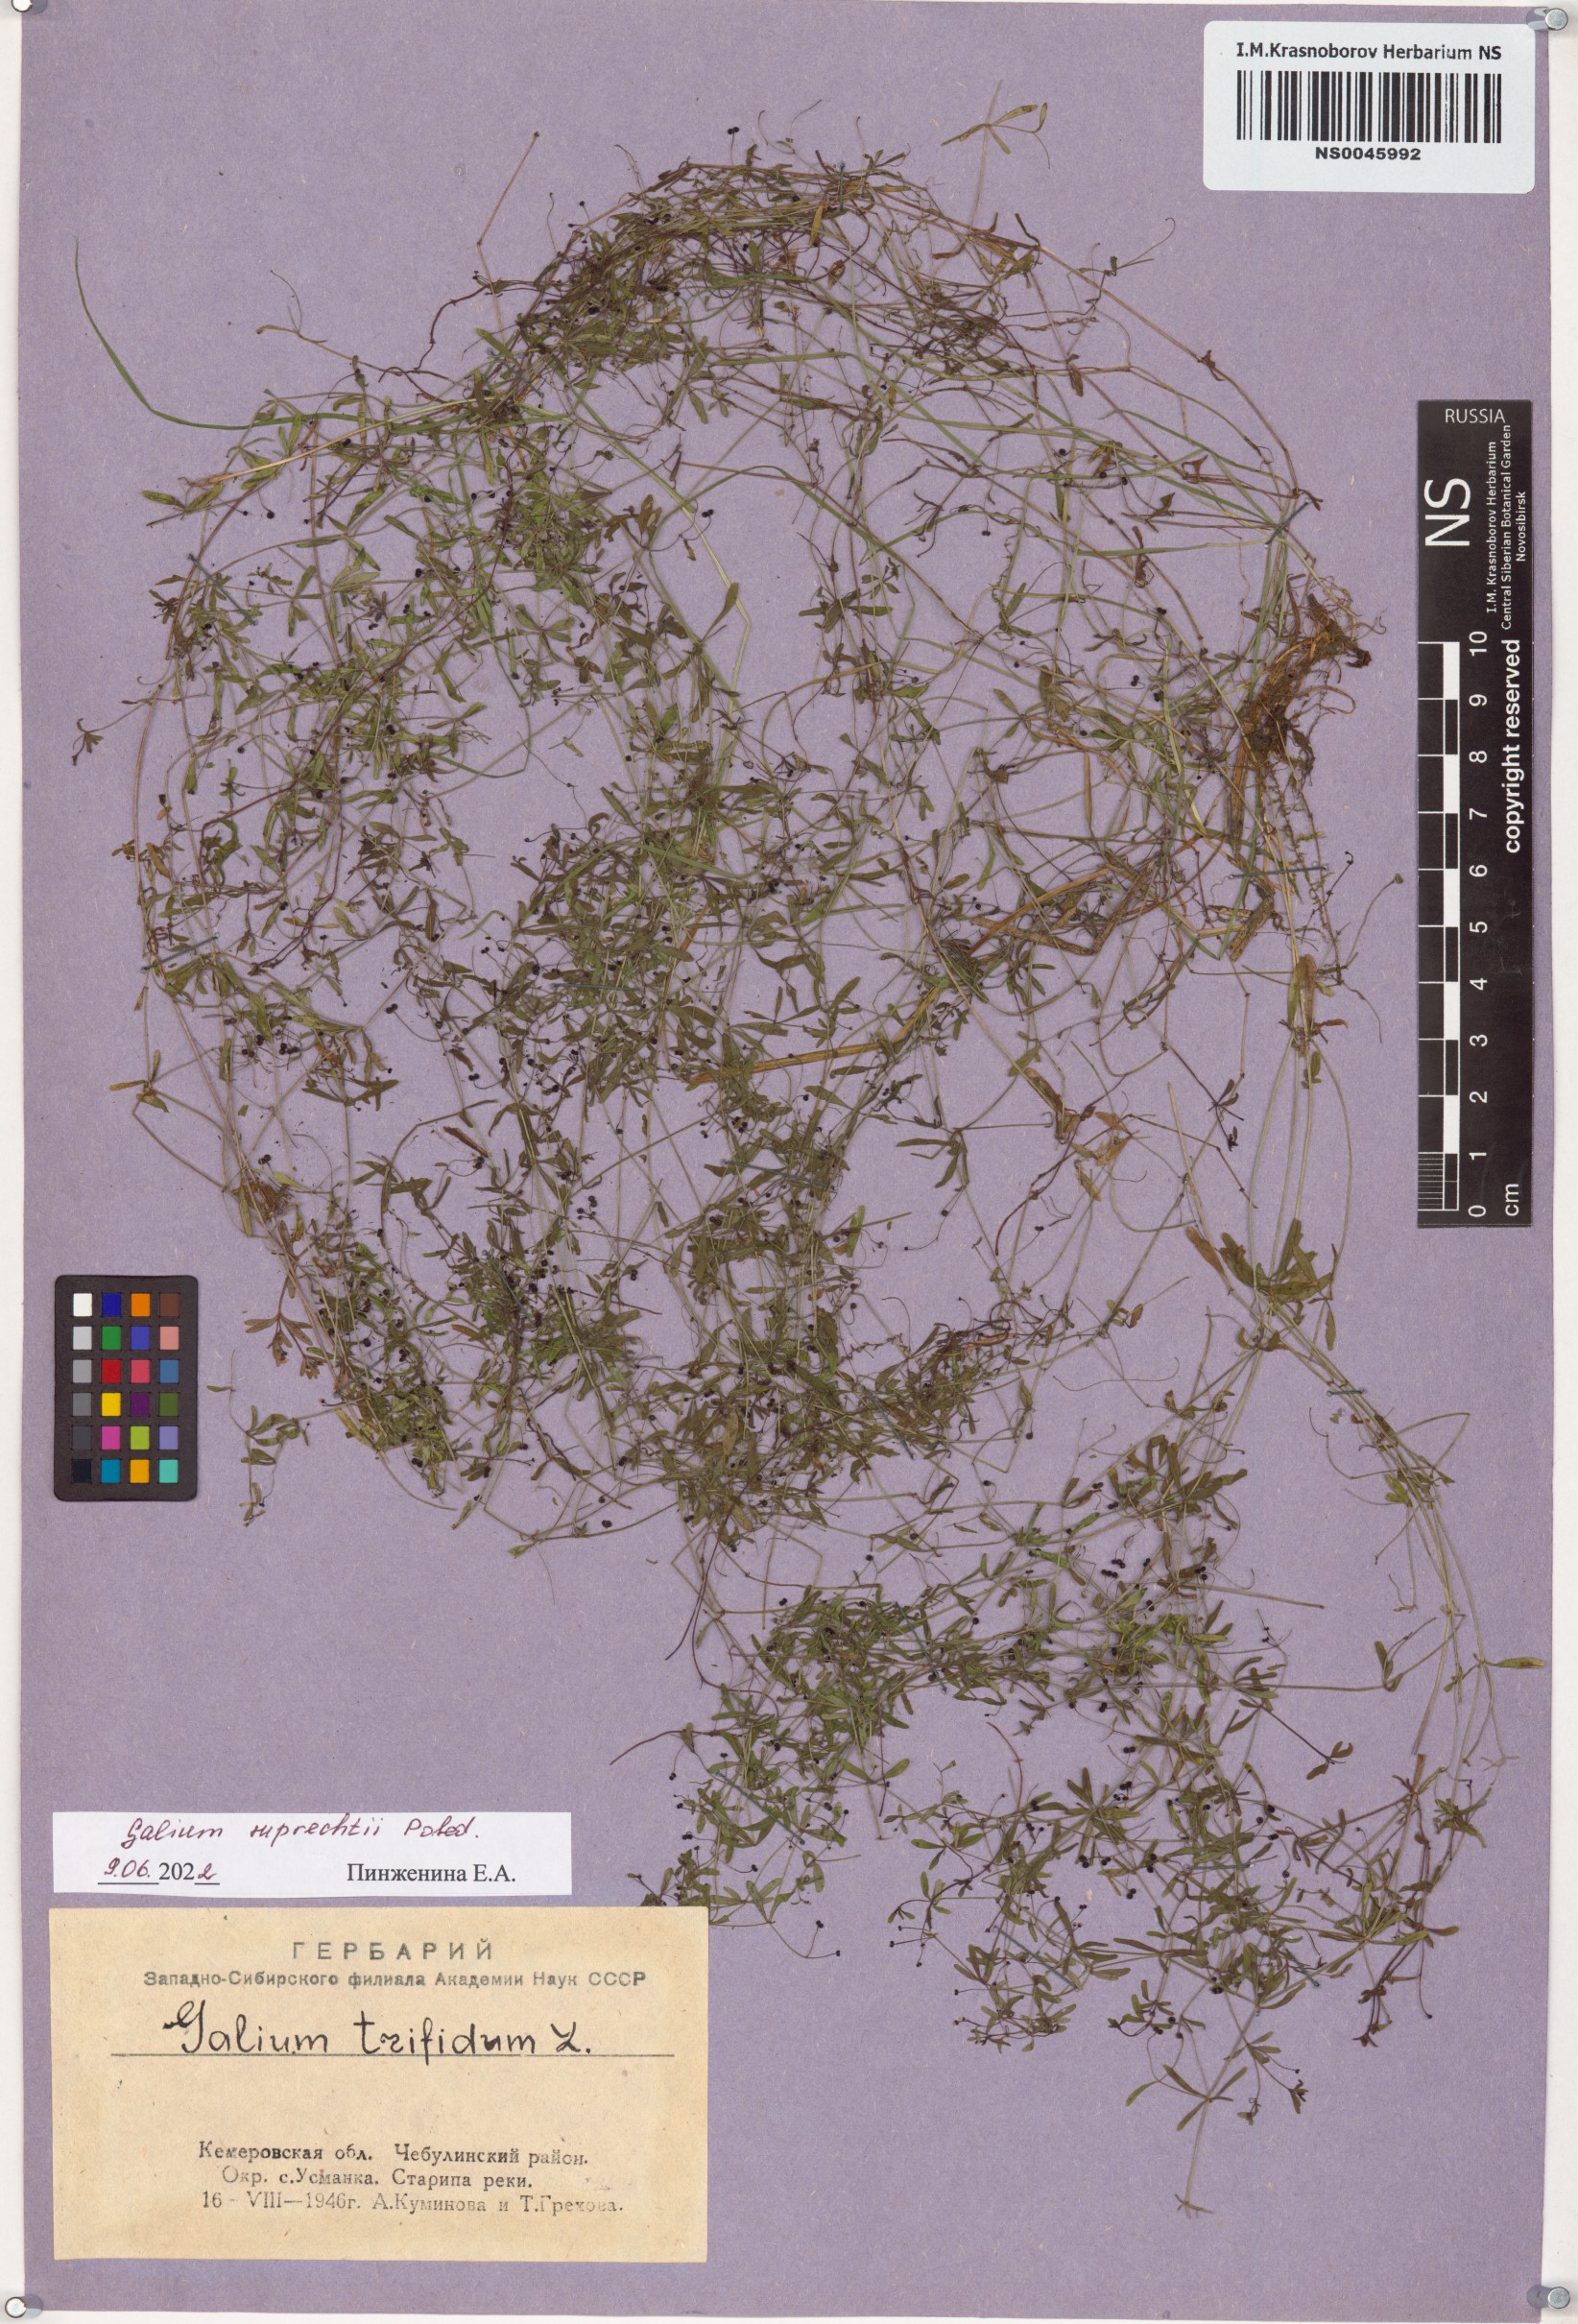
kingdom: Plantae
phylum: Tracheophyta
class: Magnoliopsida
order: Gentianales
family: Rubiaceae
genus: Galium
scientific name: Galium trifidum
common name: Small bedstraw
